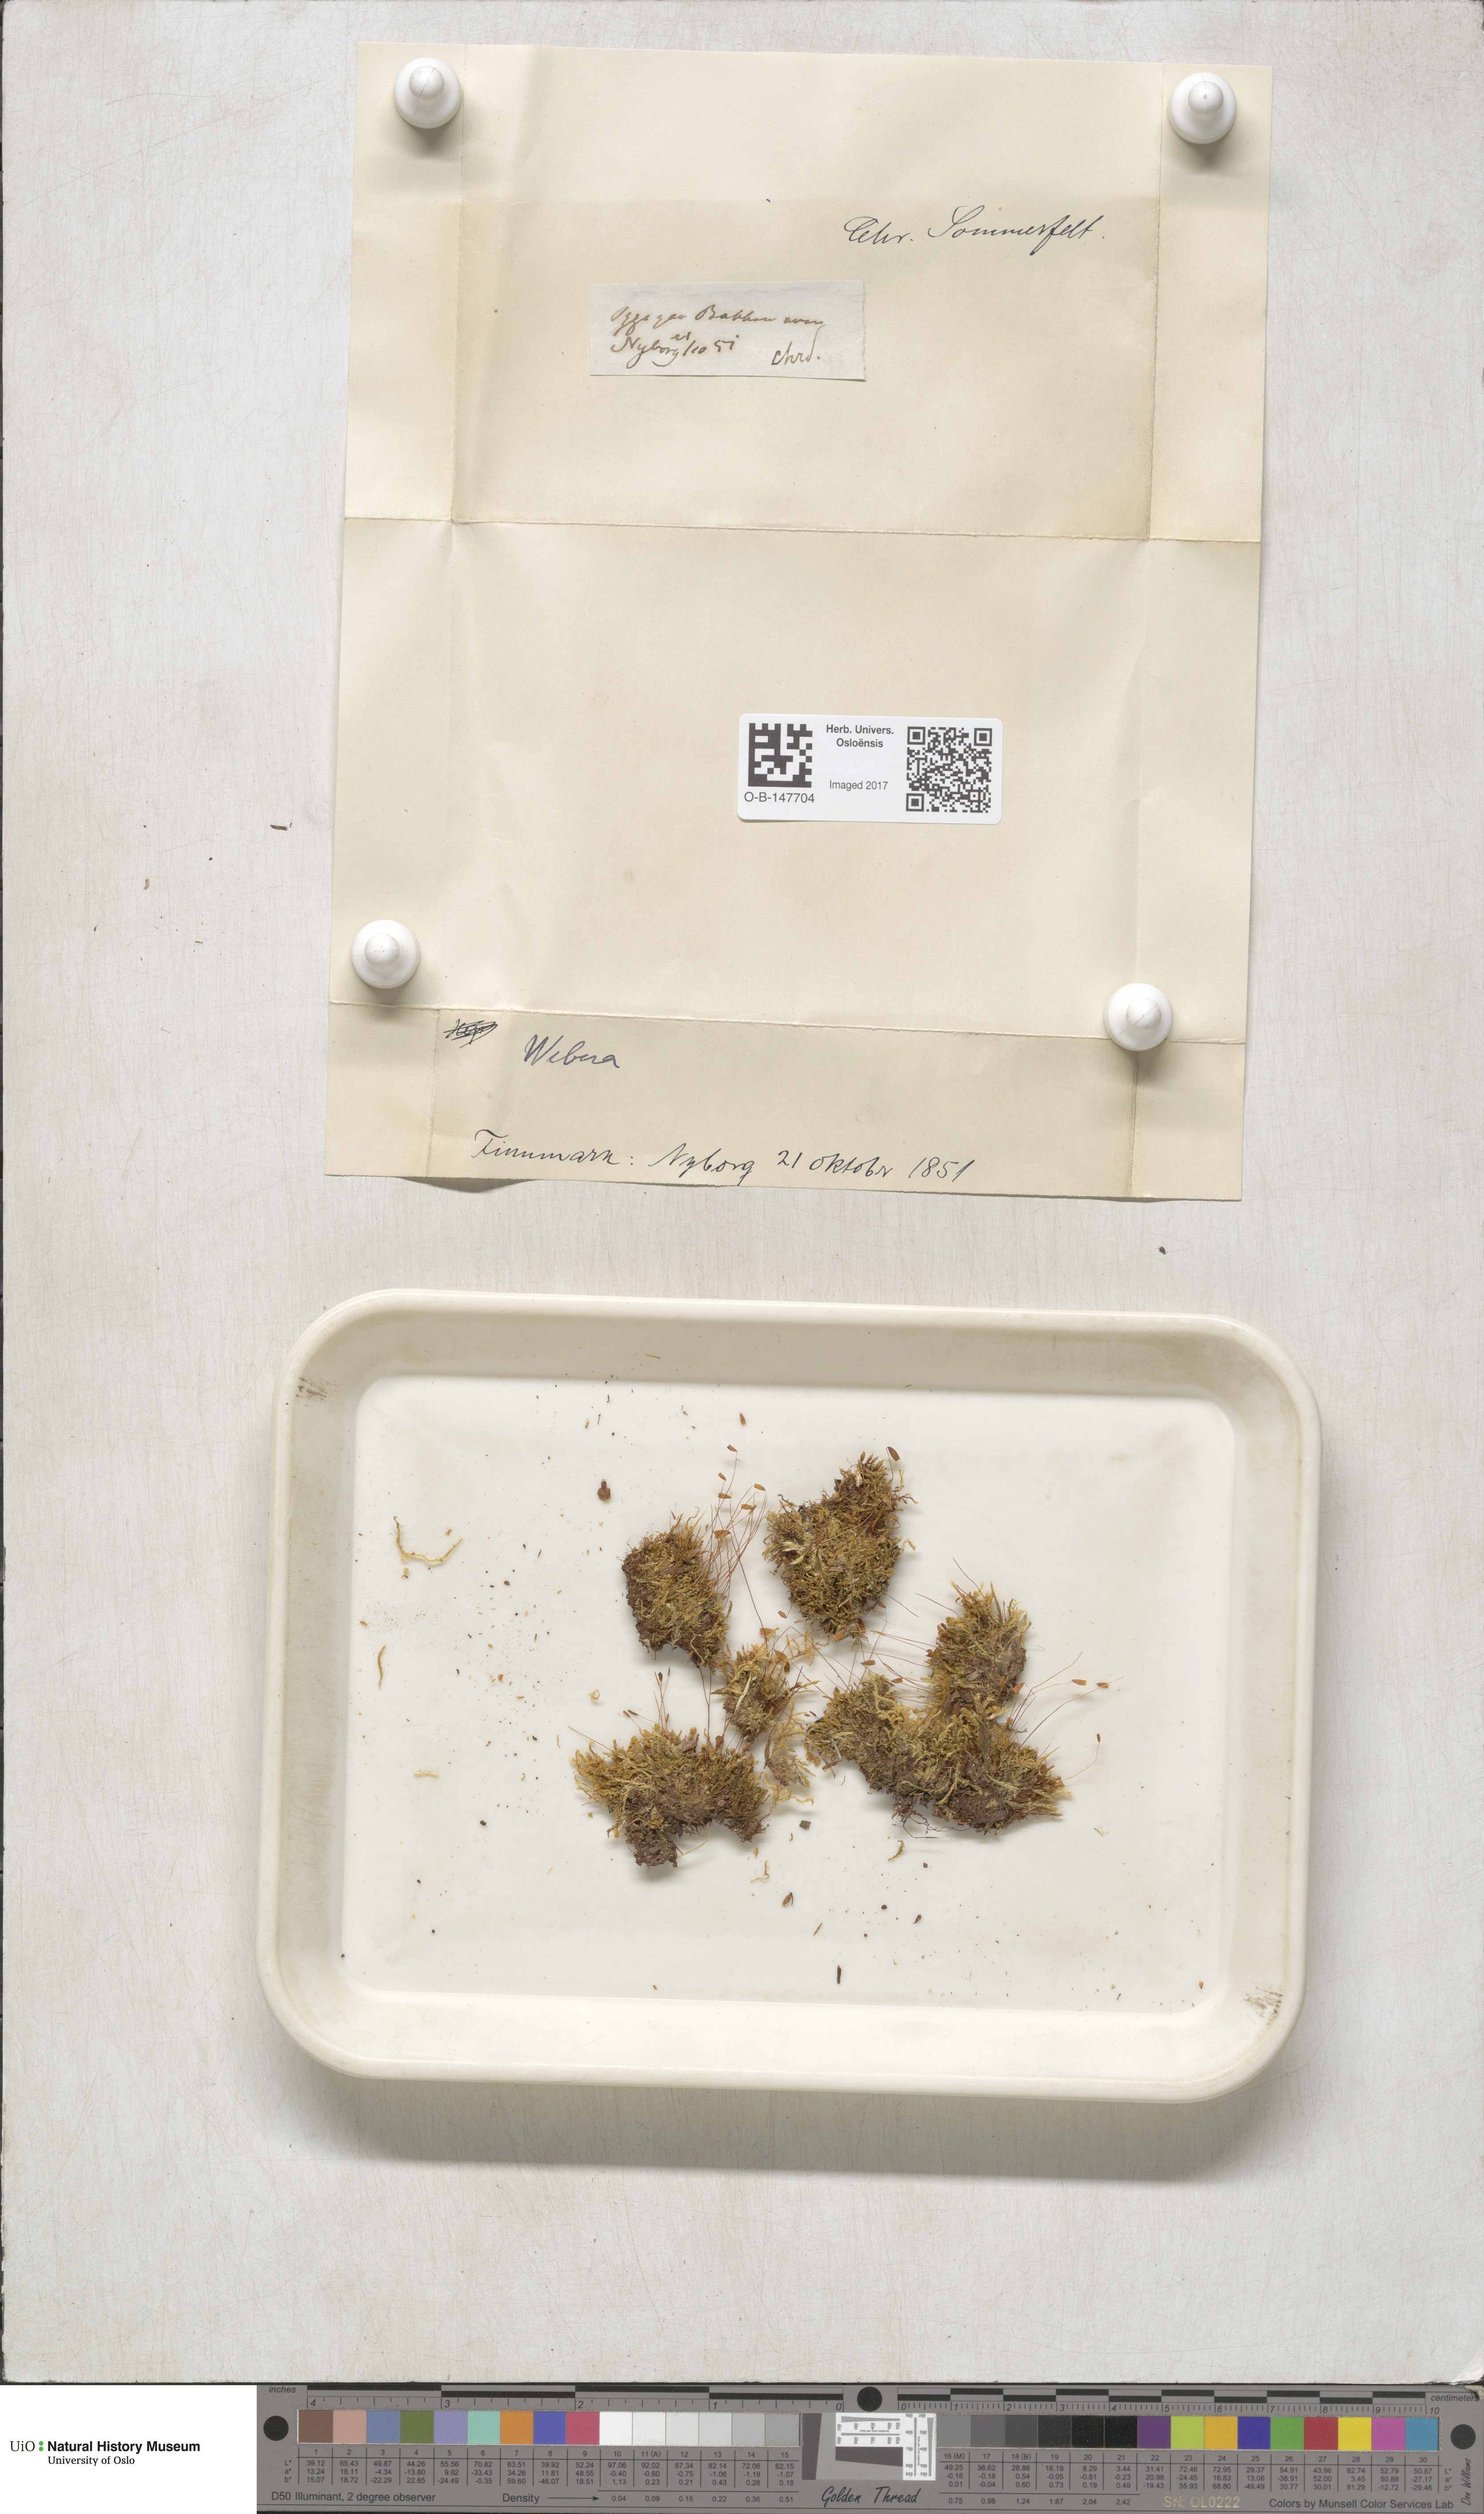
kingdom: Plantae
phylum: Bryophyta
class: Bryopsida
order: Bryales
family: Mniaceae
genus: Pohlia
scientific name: Pohlia
